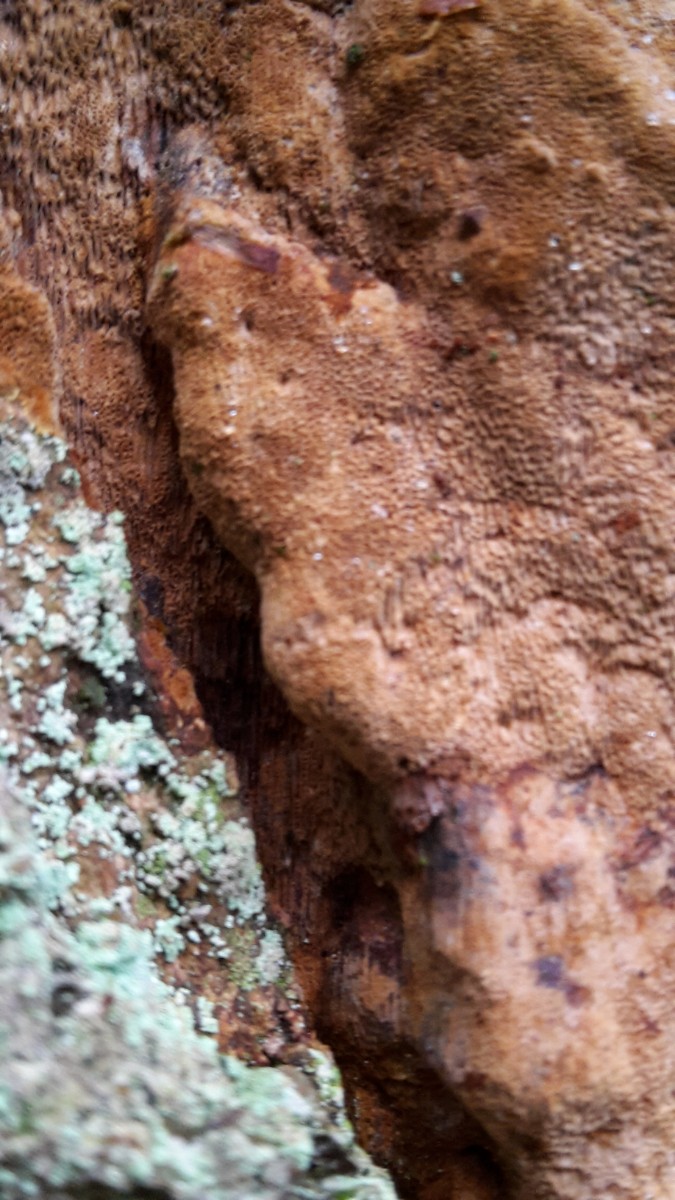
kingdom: Fungi
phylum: Basidiomycota
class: Agaricomycetes
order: Hymenochaetales
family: Hymenochaetaceae
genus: Fuscoporia
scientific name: Fuscoporia ferrea
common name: skorpe-ildporesvamp
